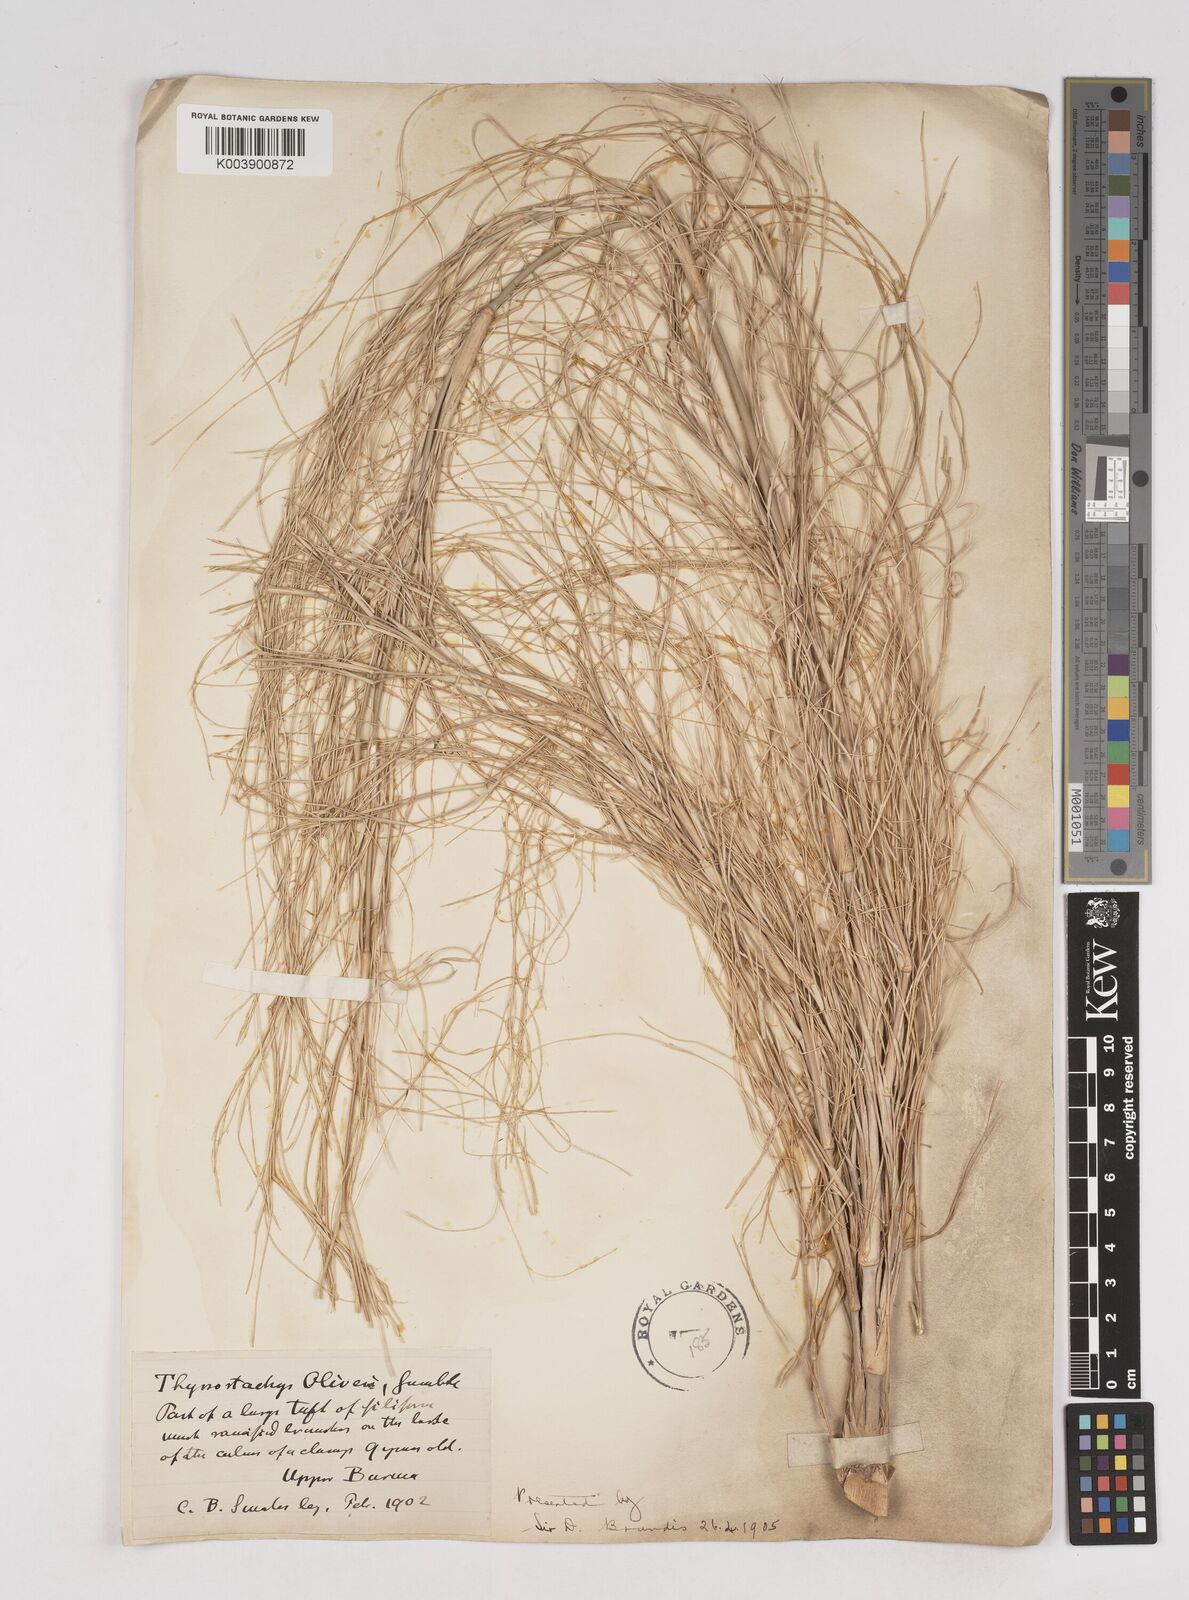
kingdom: Plantae
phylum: Tracheophyta
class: Liliopsida
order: Poales
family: Poaceae
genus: Thyrsostachys
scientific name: Thyrsostachys oliveri
